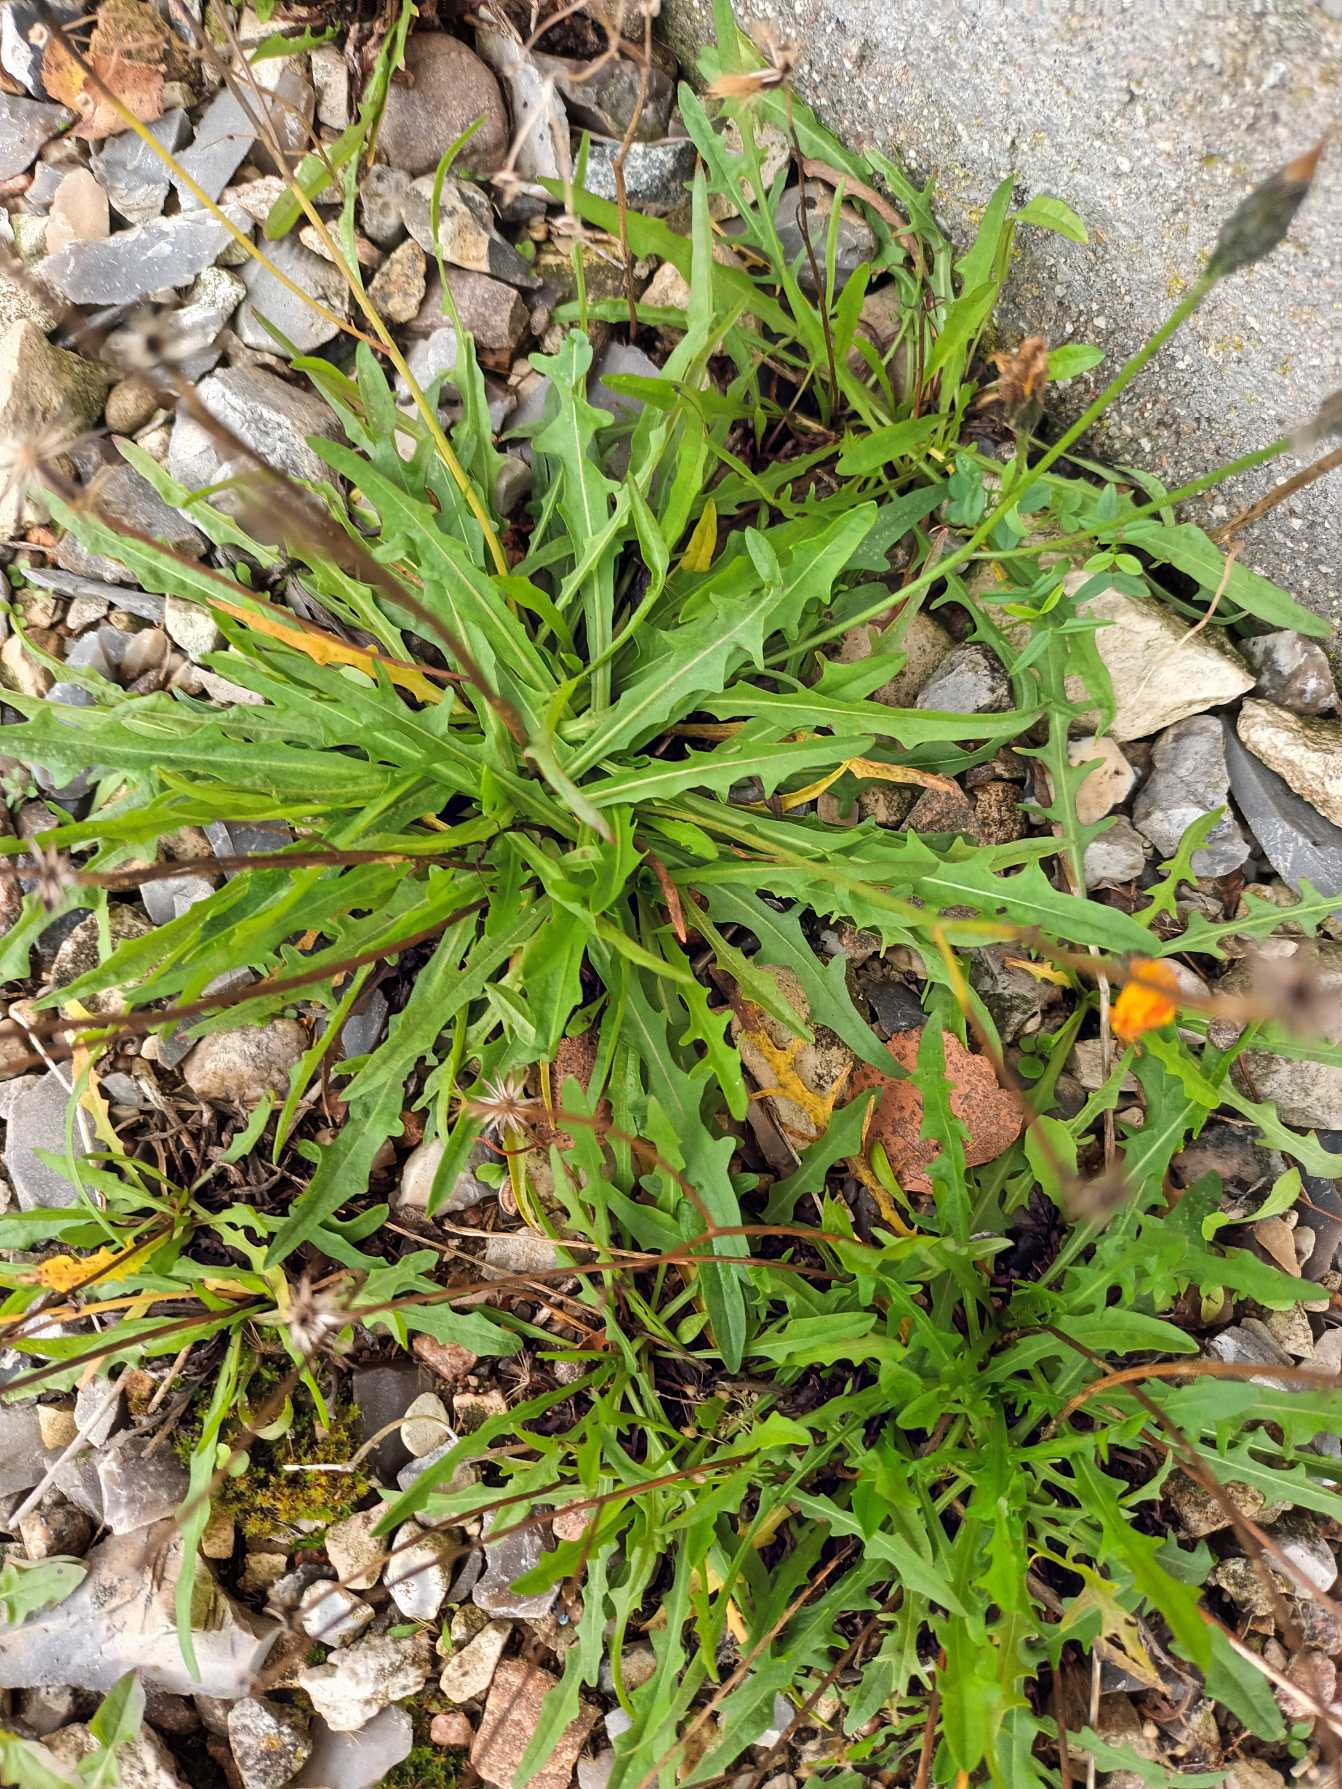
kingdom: Plantae
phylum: Tracheophyta
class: Magnoliopsida
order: Asterales
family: Asteraceae
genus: Scorzoneroides
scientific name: Scorzoneroides autumnalis
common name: Høst-borst
